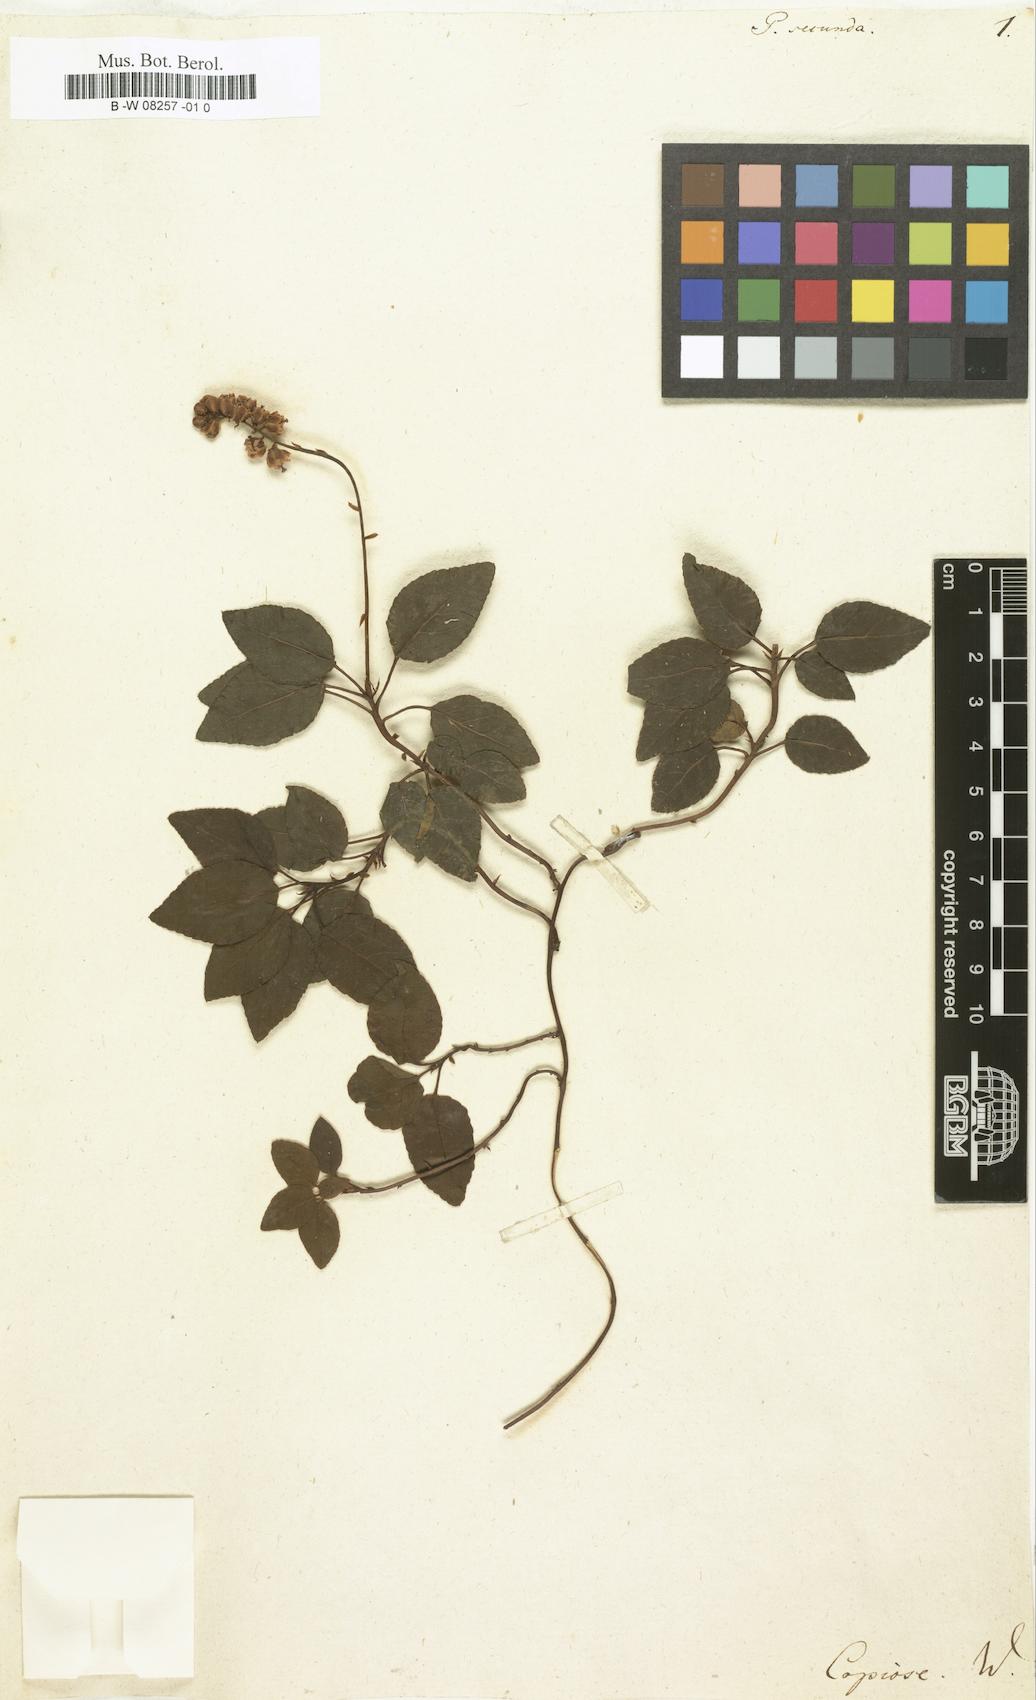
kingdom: Plantae
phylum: Tracheophyta
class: Magnoliopsida
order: Ericales
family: Ericaceae
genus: Orthilia
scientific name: Orthilia secunda
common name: One-sided orthilia
